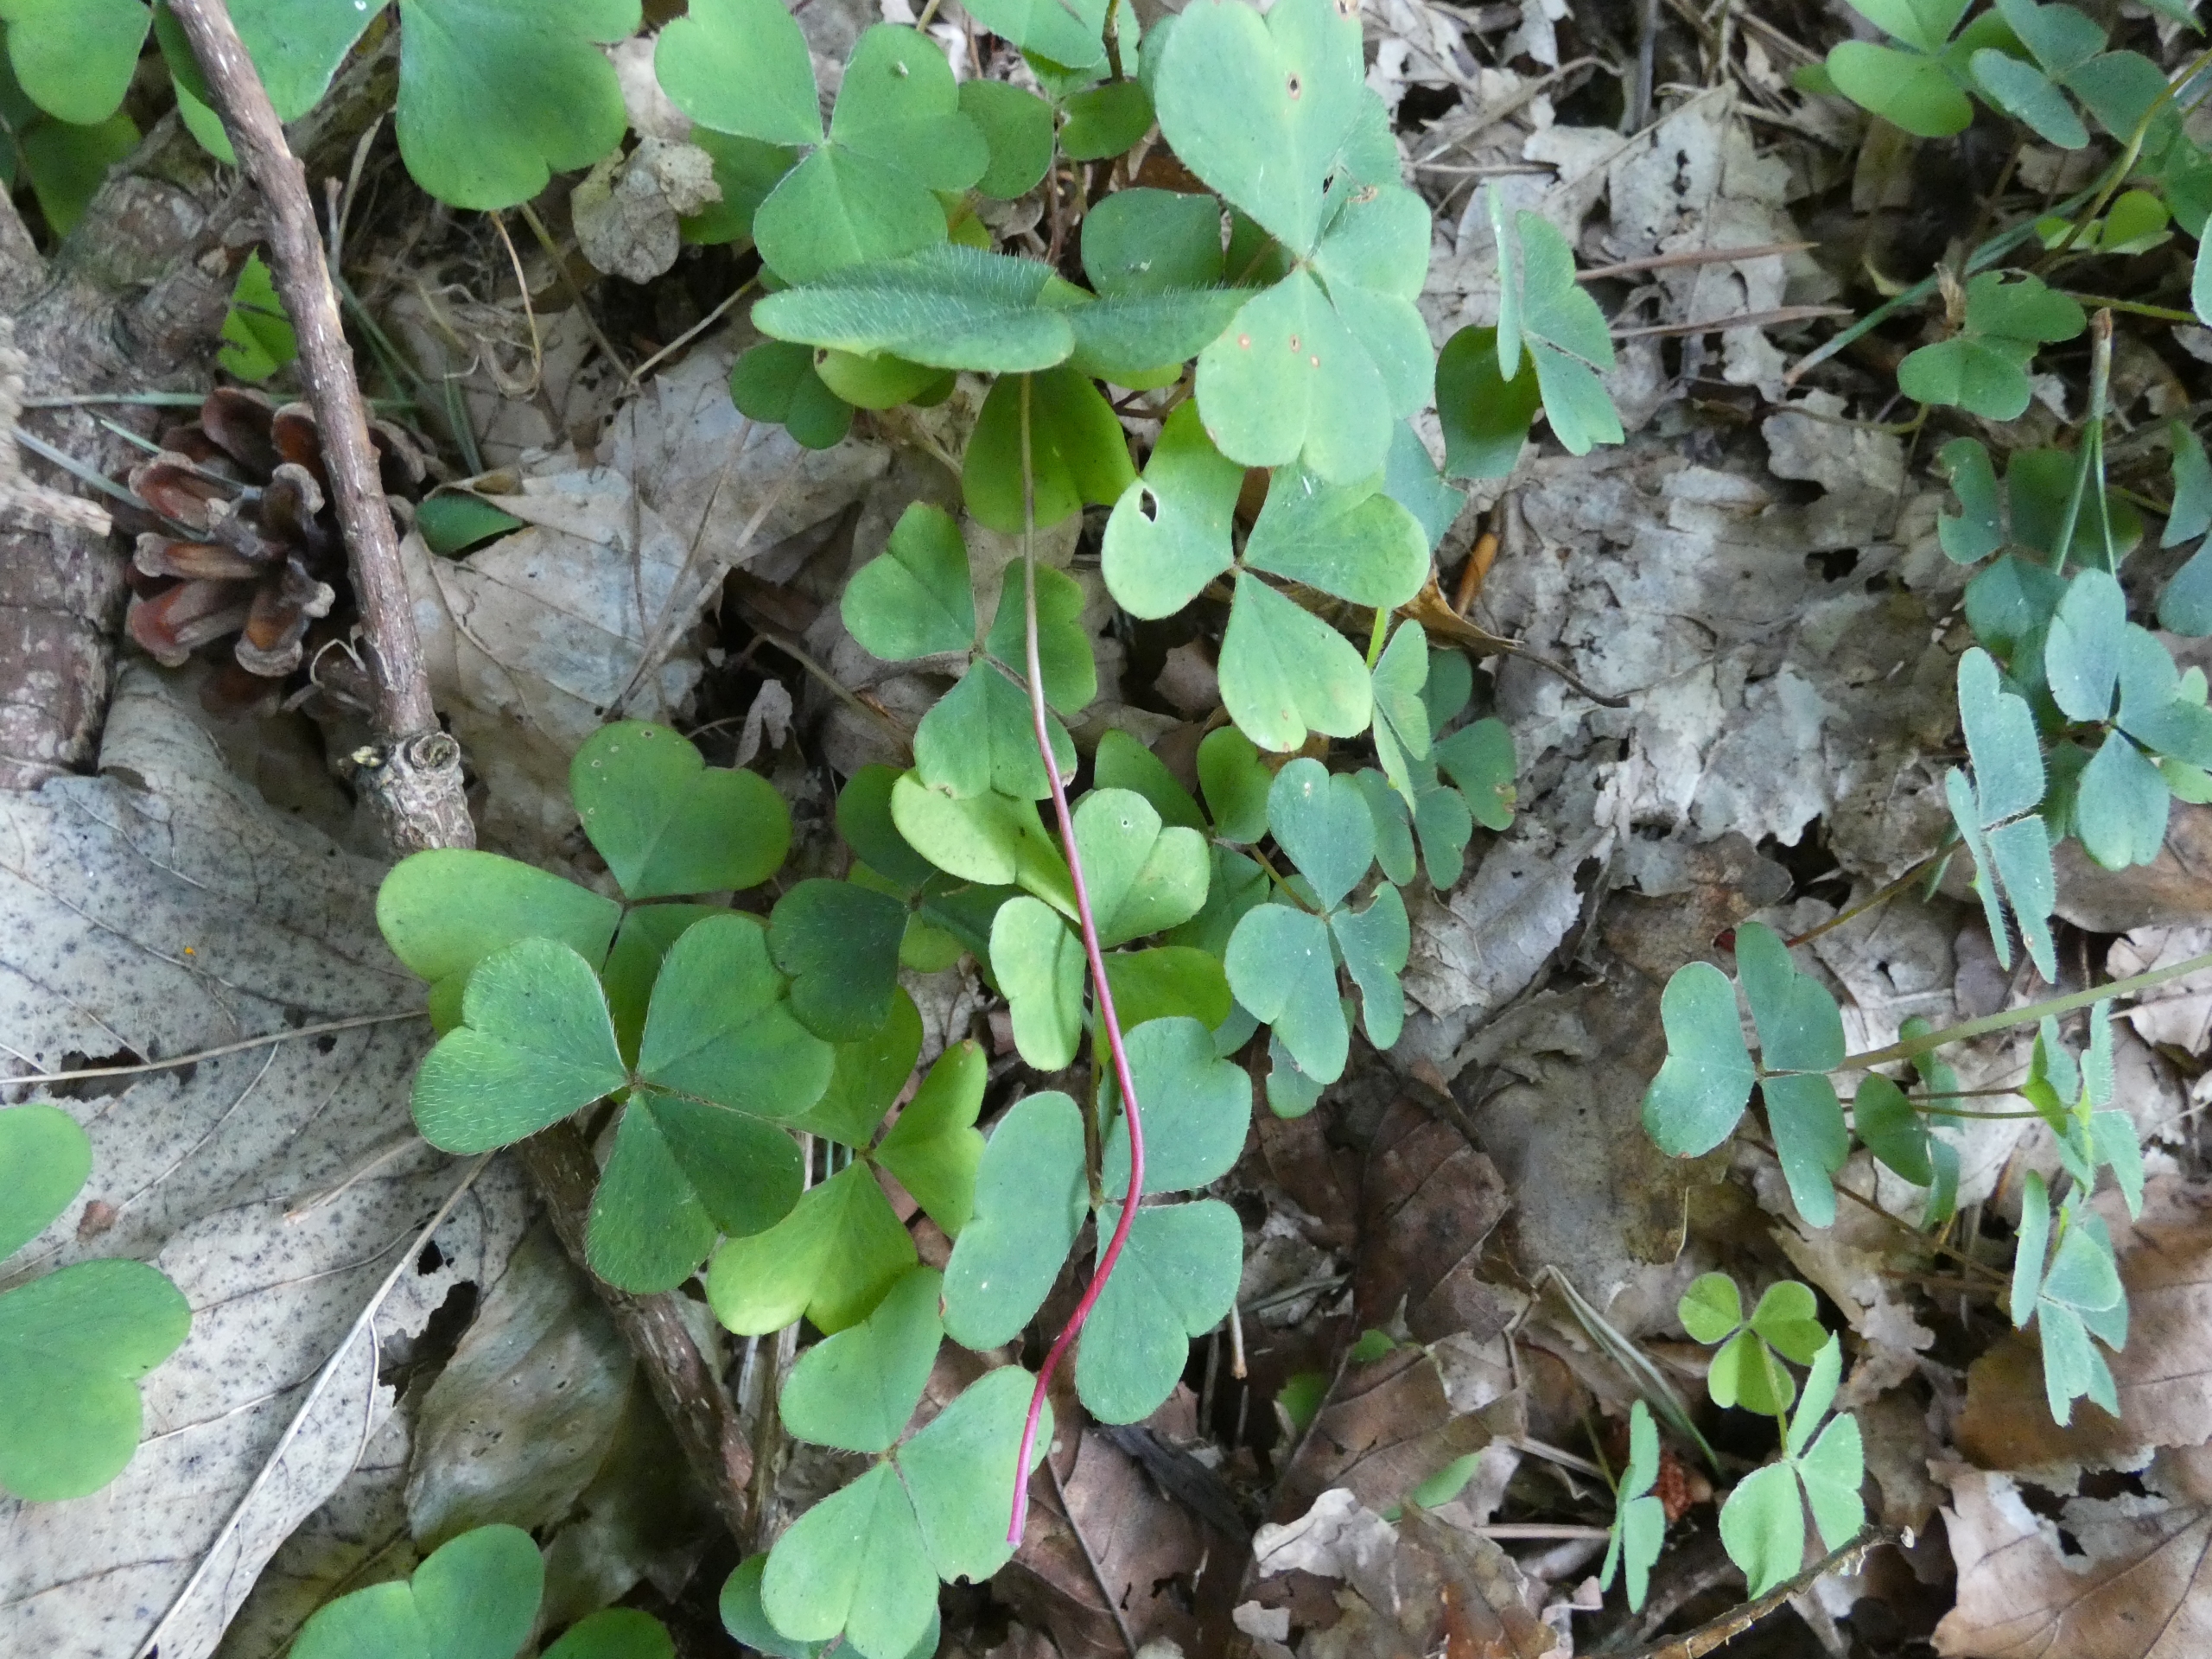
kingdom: Plantae
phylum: Tracheophyta
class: Magnoliopsida
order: Oxalidales
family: Oxalidaceae
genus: Oxalis
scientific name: Oxalis acetosella
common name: Skovsyre
